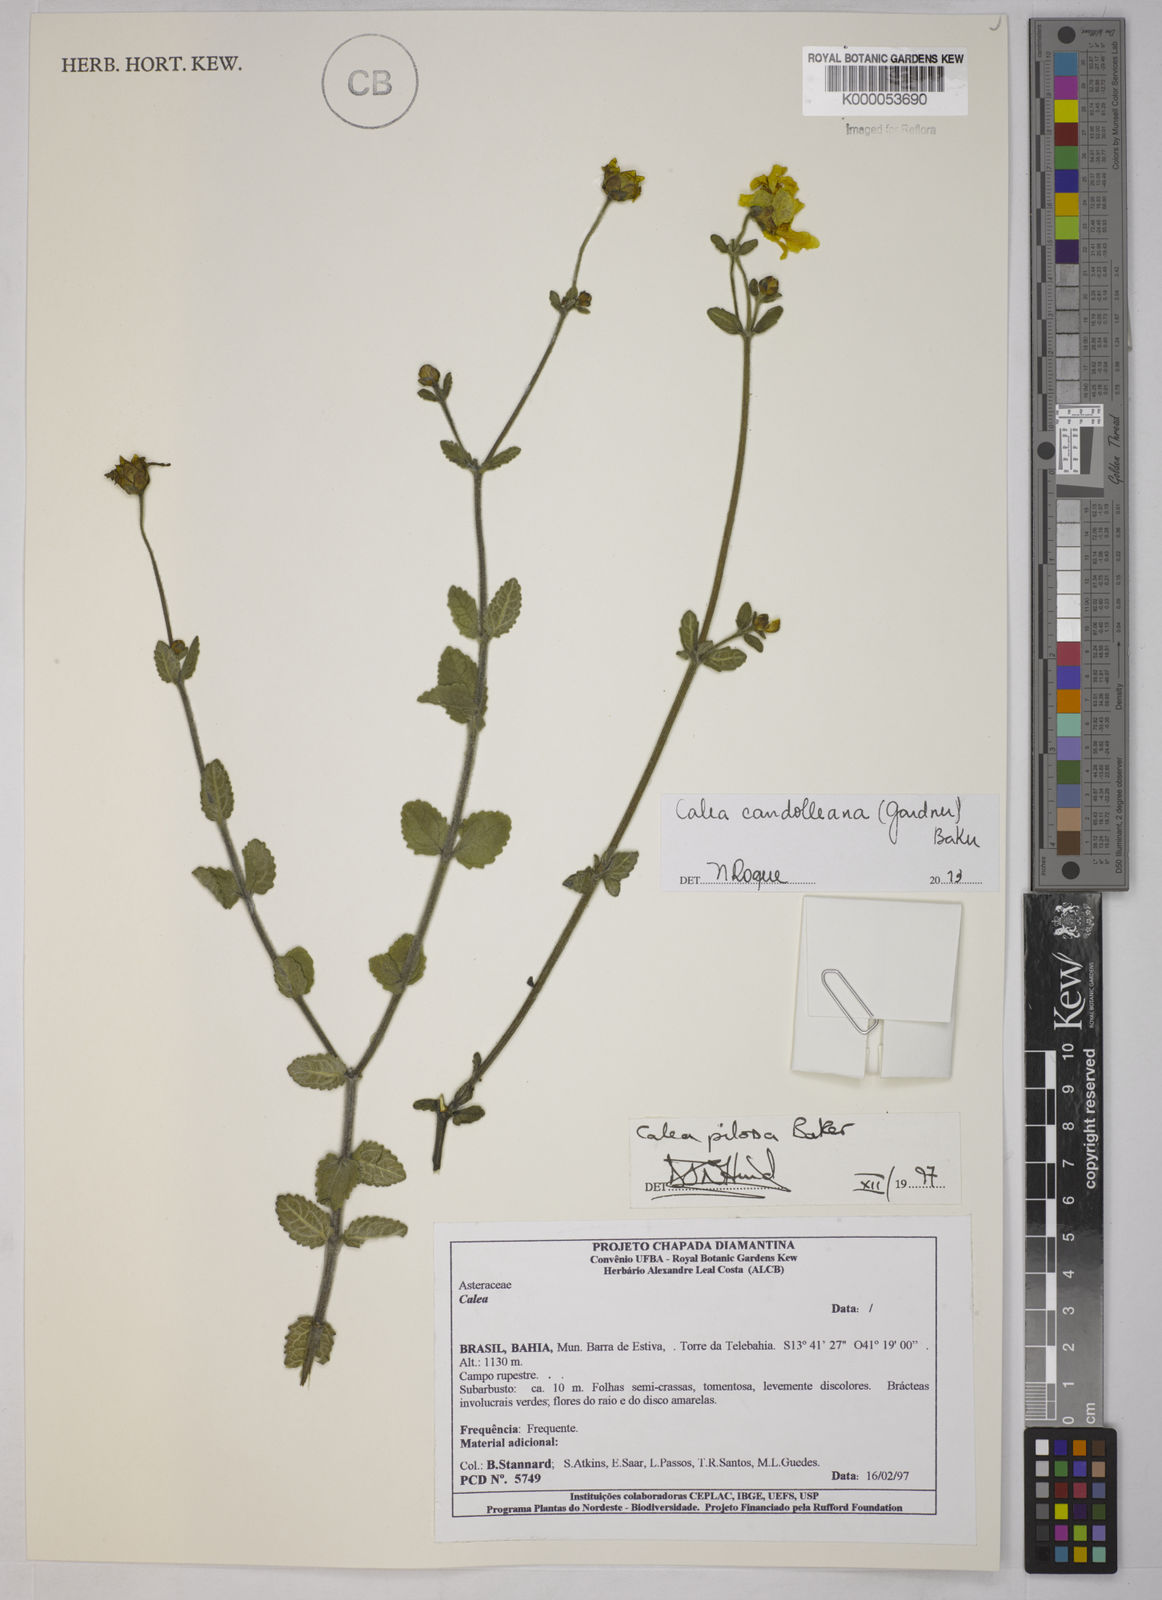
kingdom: Plantae
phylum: Tracheophyta
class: Magnoliopsida
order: Asterales
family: Asteraceae
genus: Calea
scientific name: Calea pilosa
